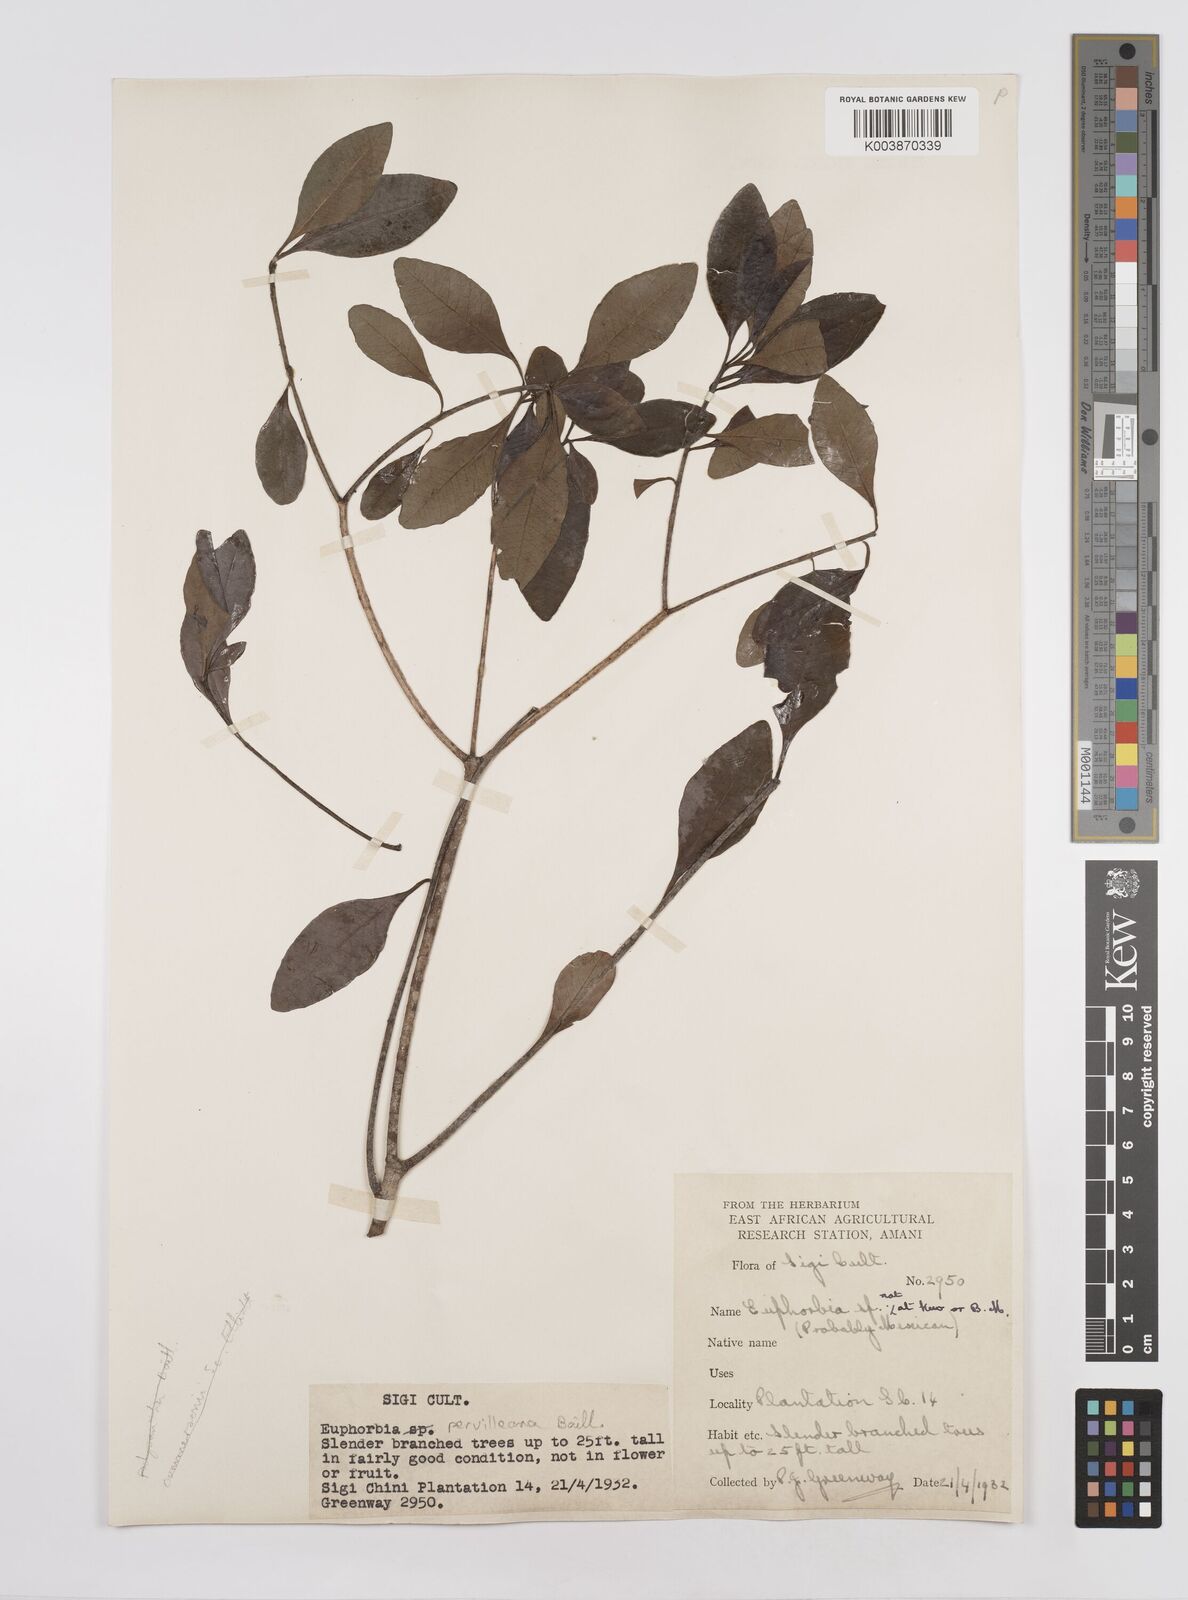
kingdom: Plantae
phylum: Tracheophyta
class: Magnoliopsida
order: Malpighiales
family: Euphorbiaceae
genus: Euphorbia
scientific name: Euphorbia pervilleana
